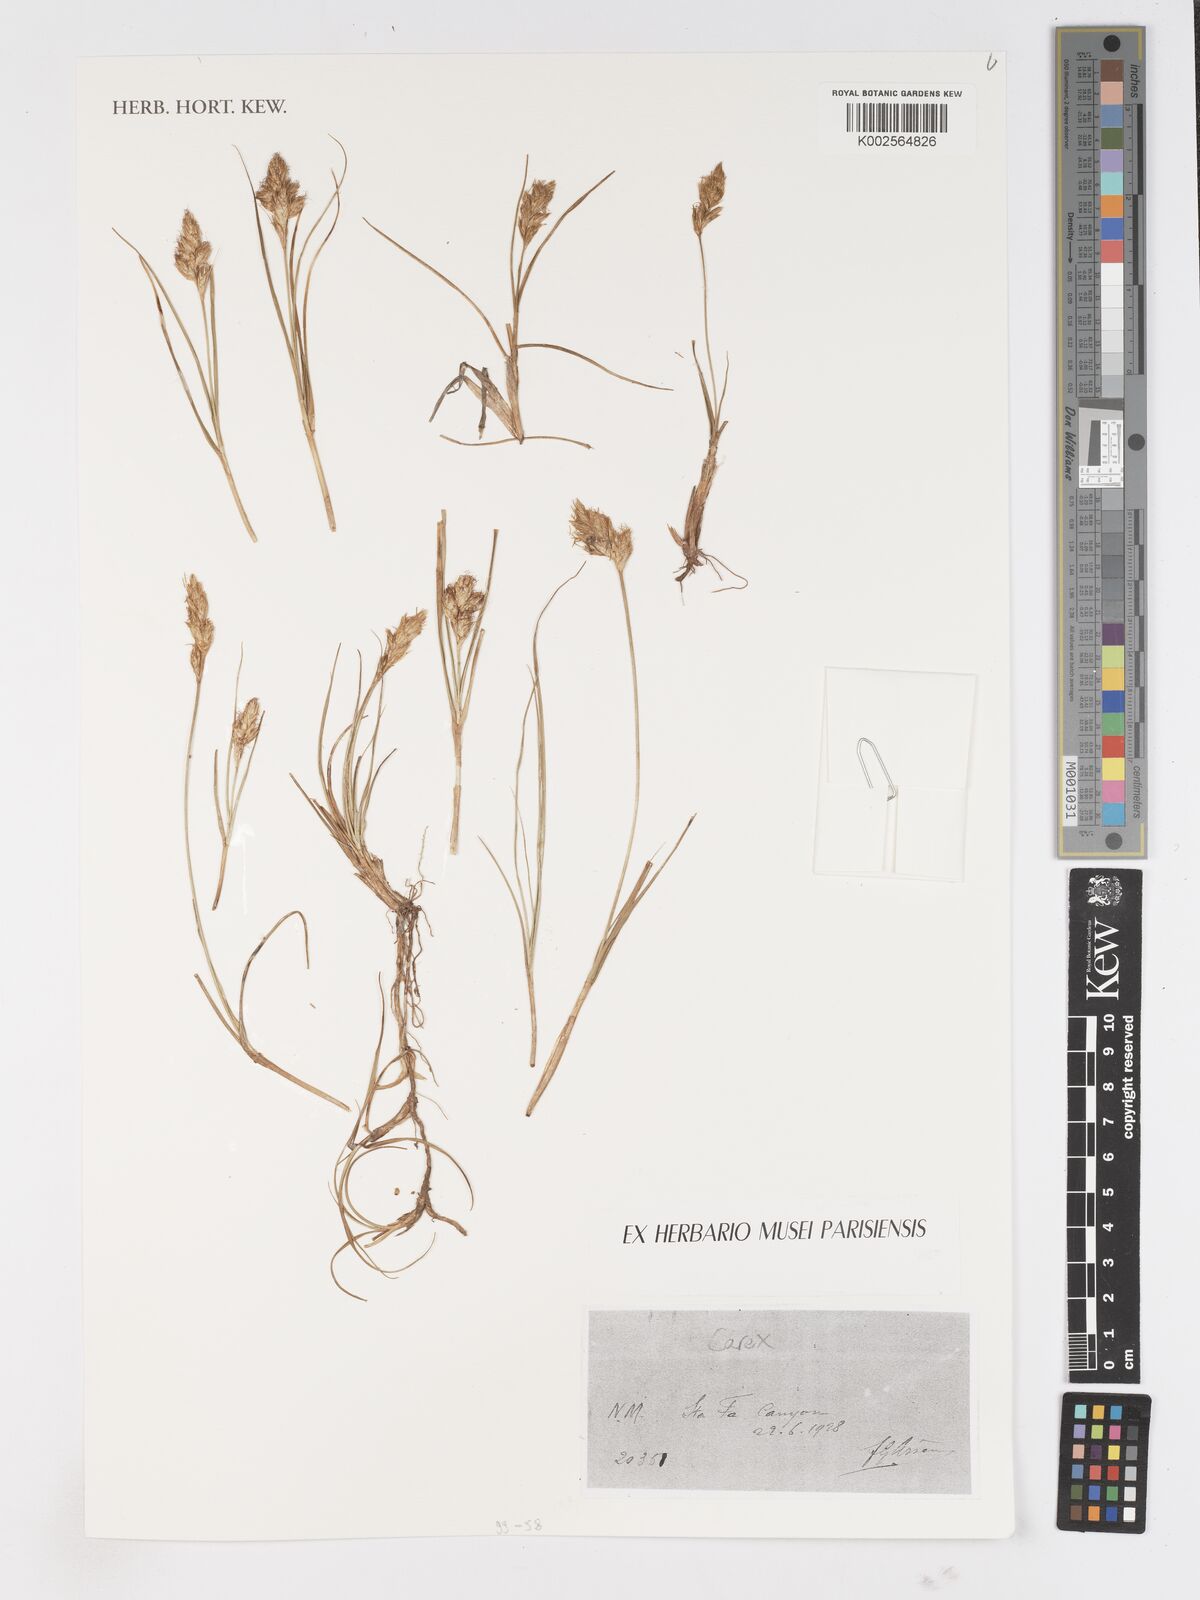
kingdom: Plantae
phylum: Tracheophyta
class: Liliopsida
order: Poales
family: Cyperaceae
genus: Carex
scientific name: Carex
